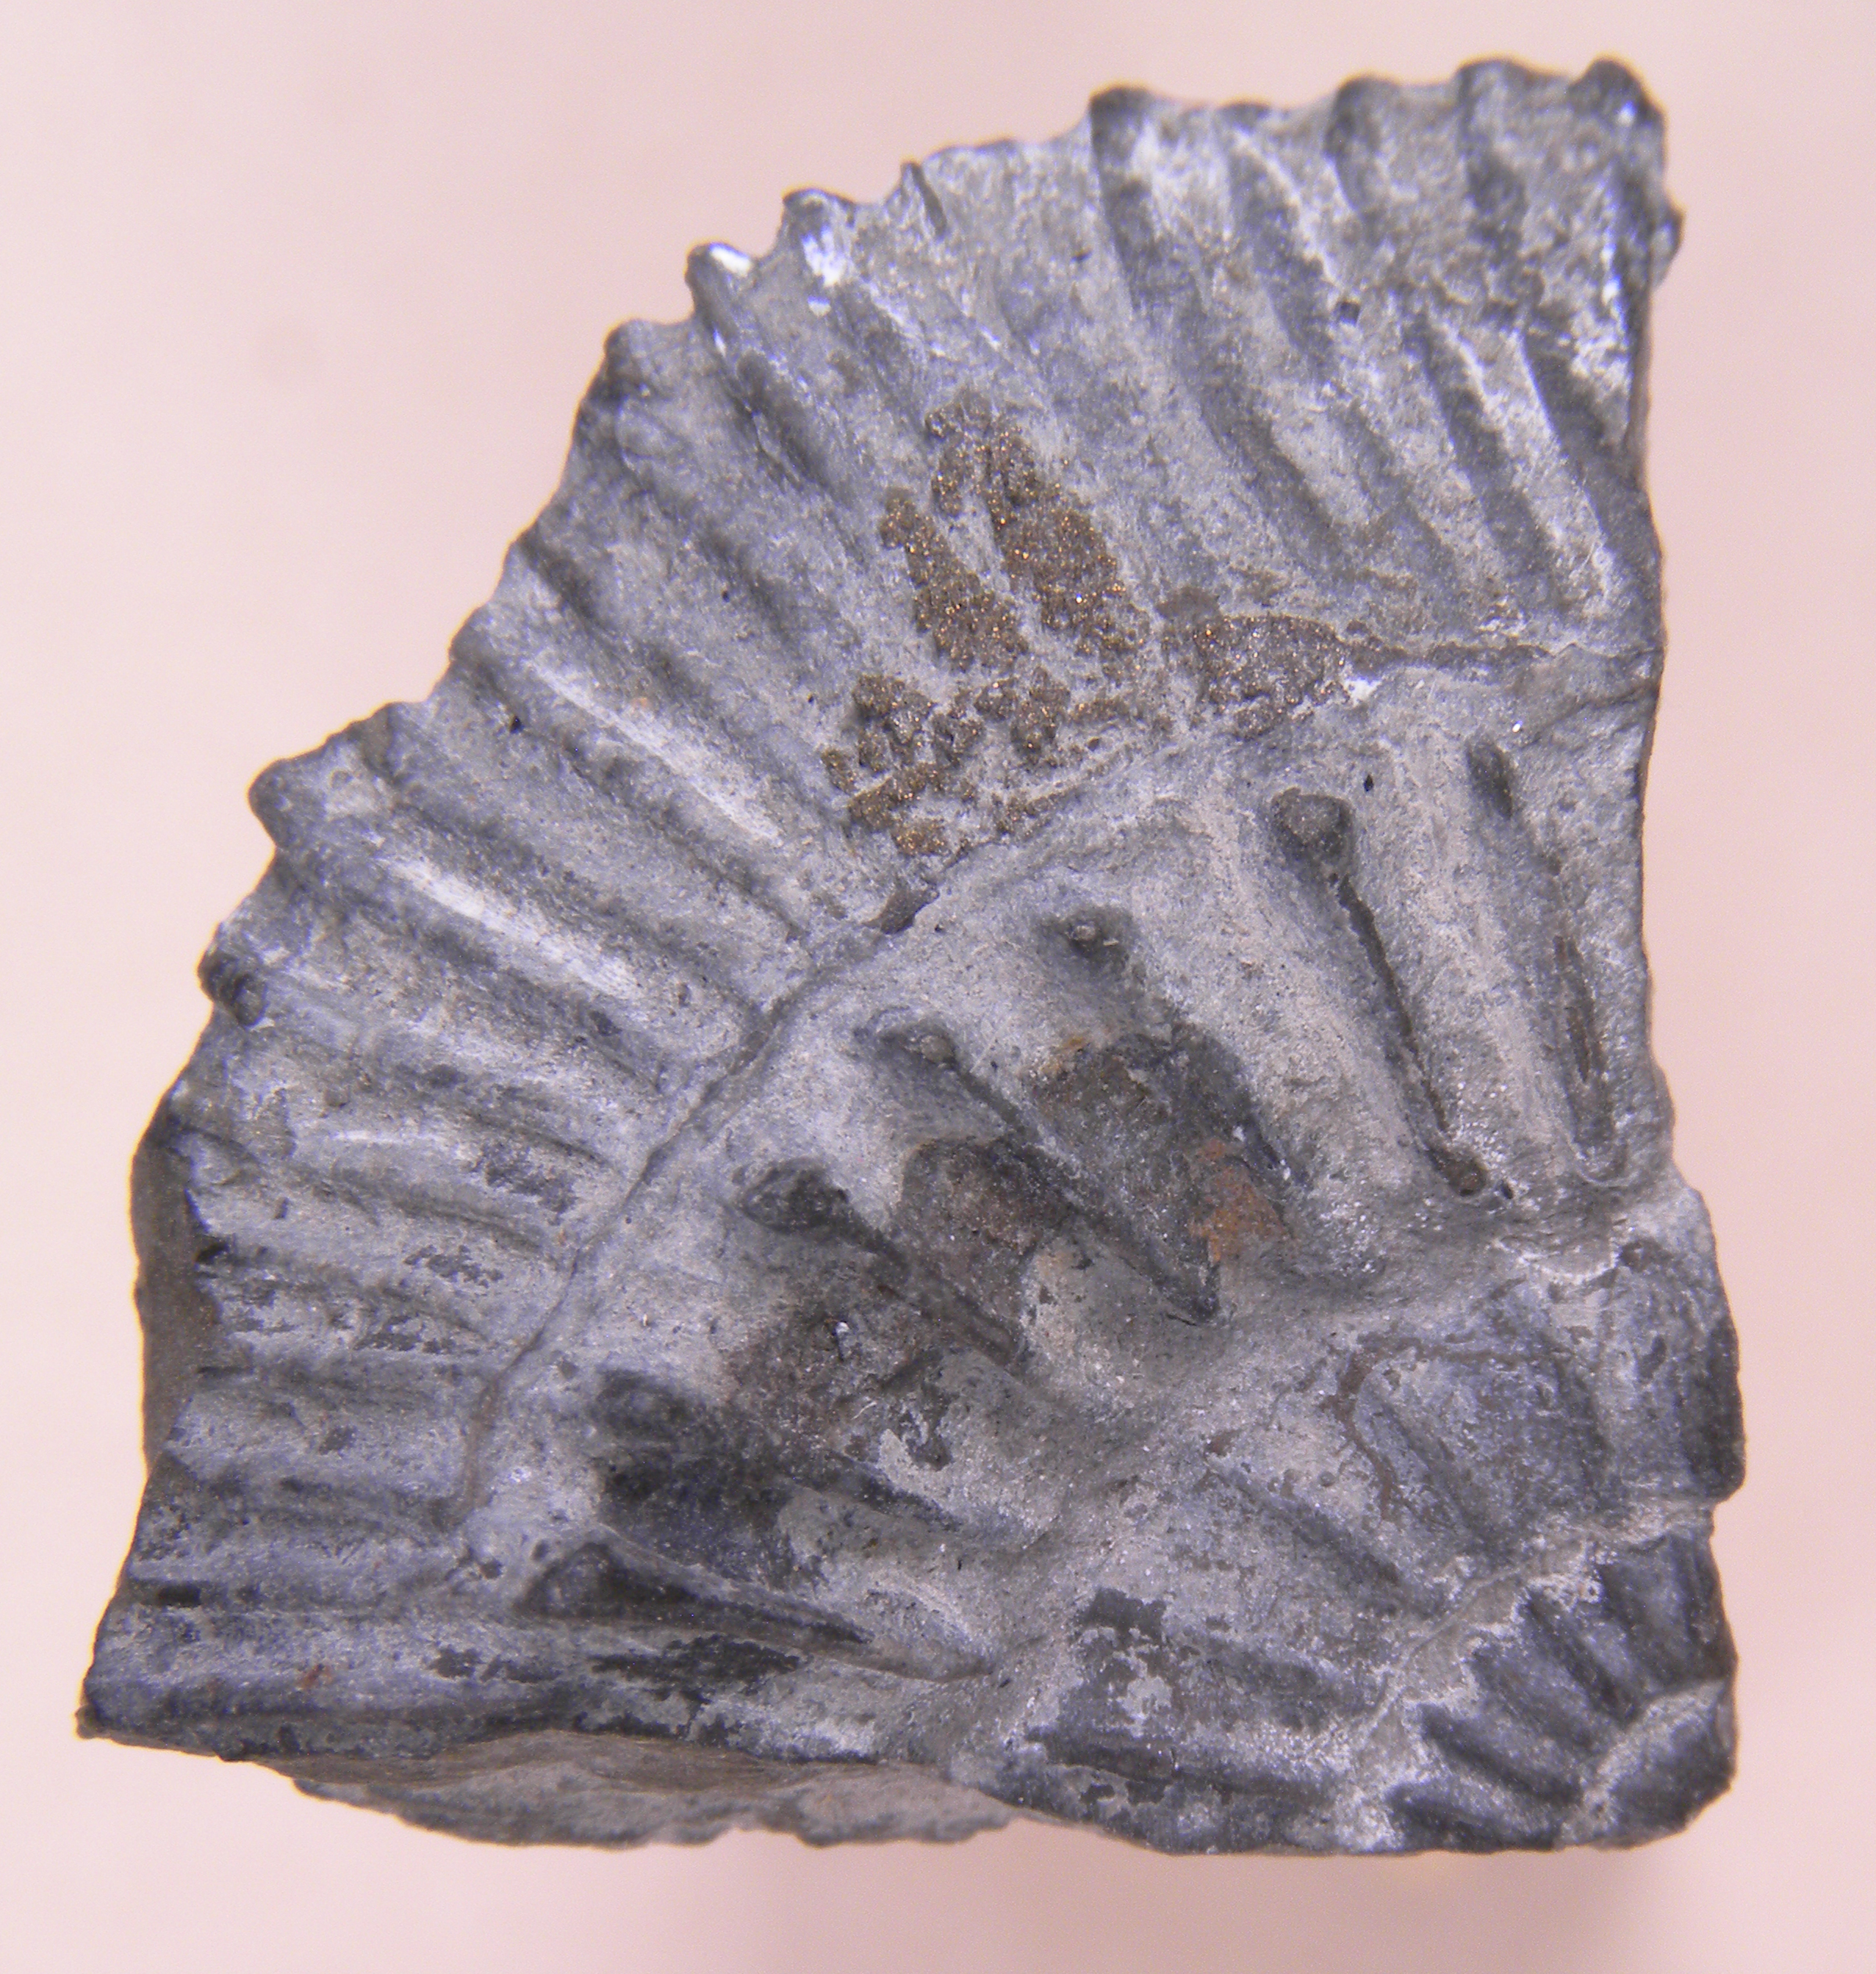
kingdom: Animalia
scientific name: Animalia
